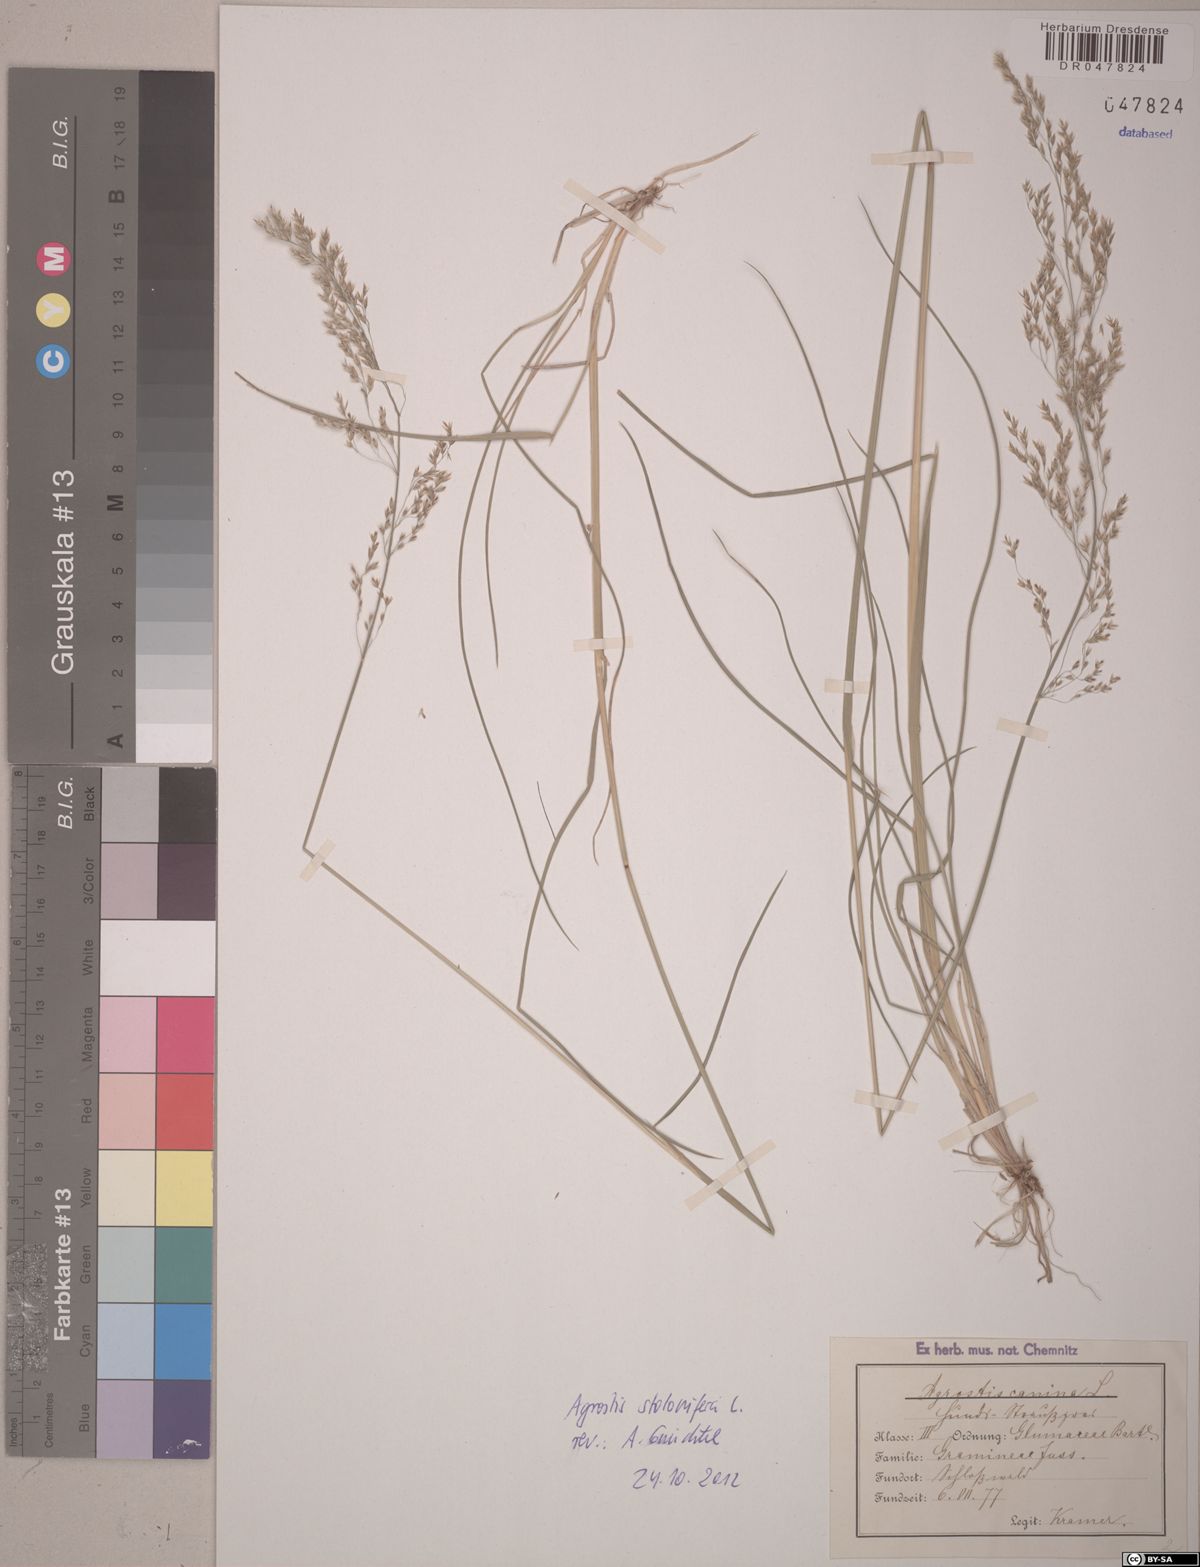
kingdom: Plantae
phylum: Tracheophyta
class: Liliopsida
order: Poales
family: Poaceae
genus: Agrostis
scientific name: Agrostis stolonifera
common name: Creeping bentgrass
